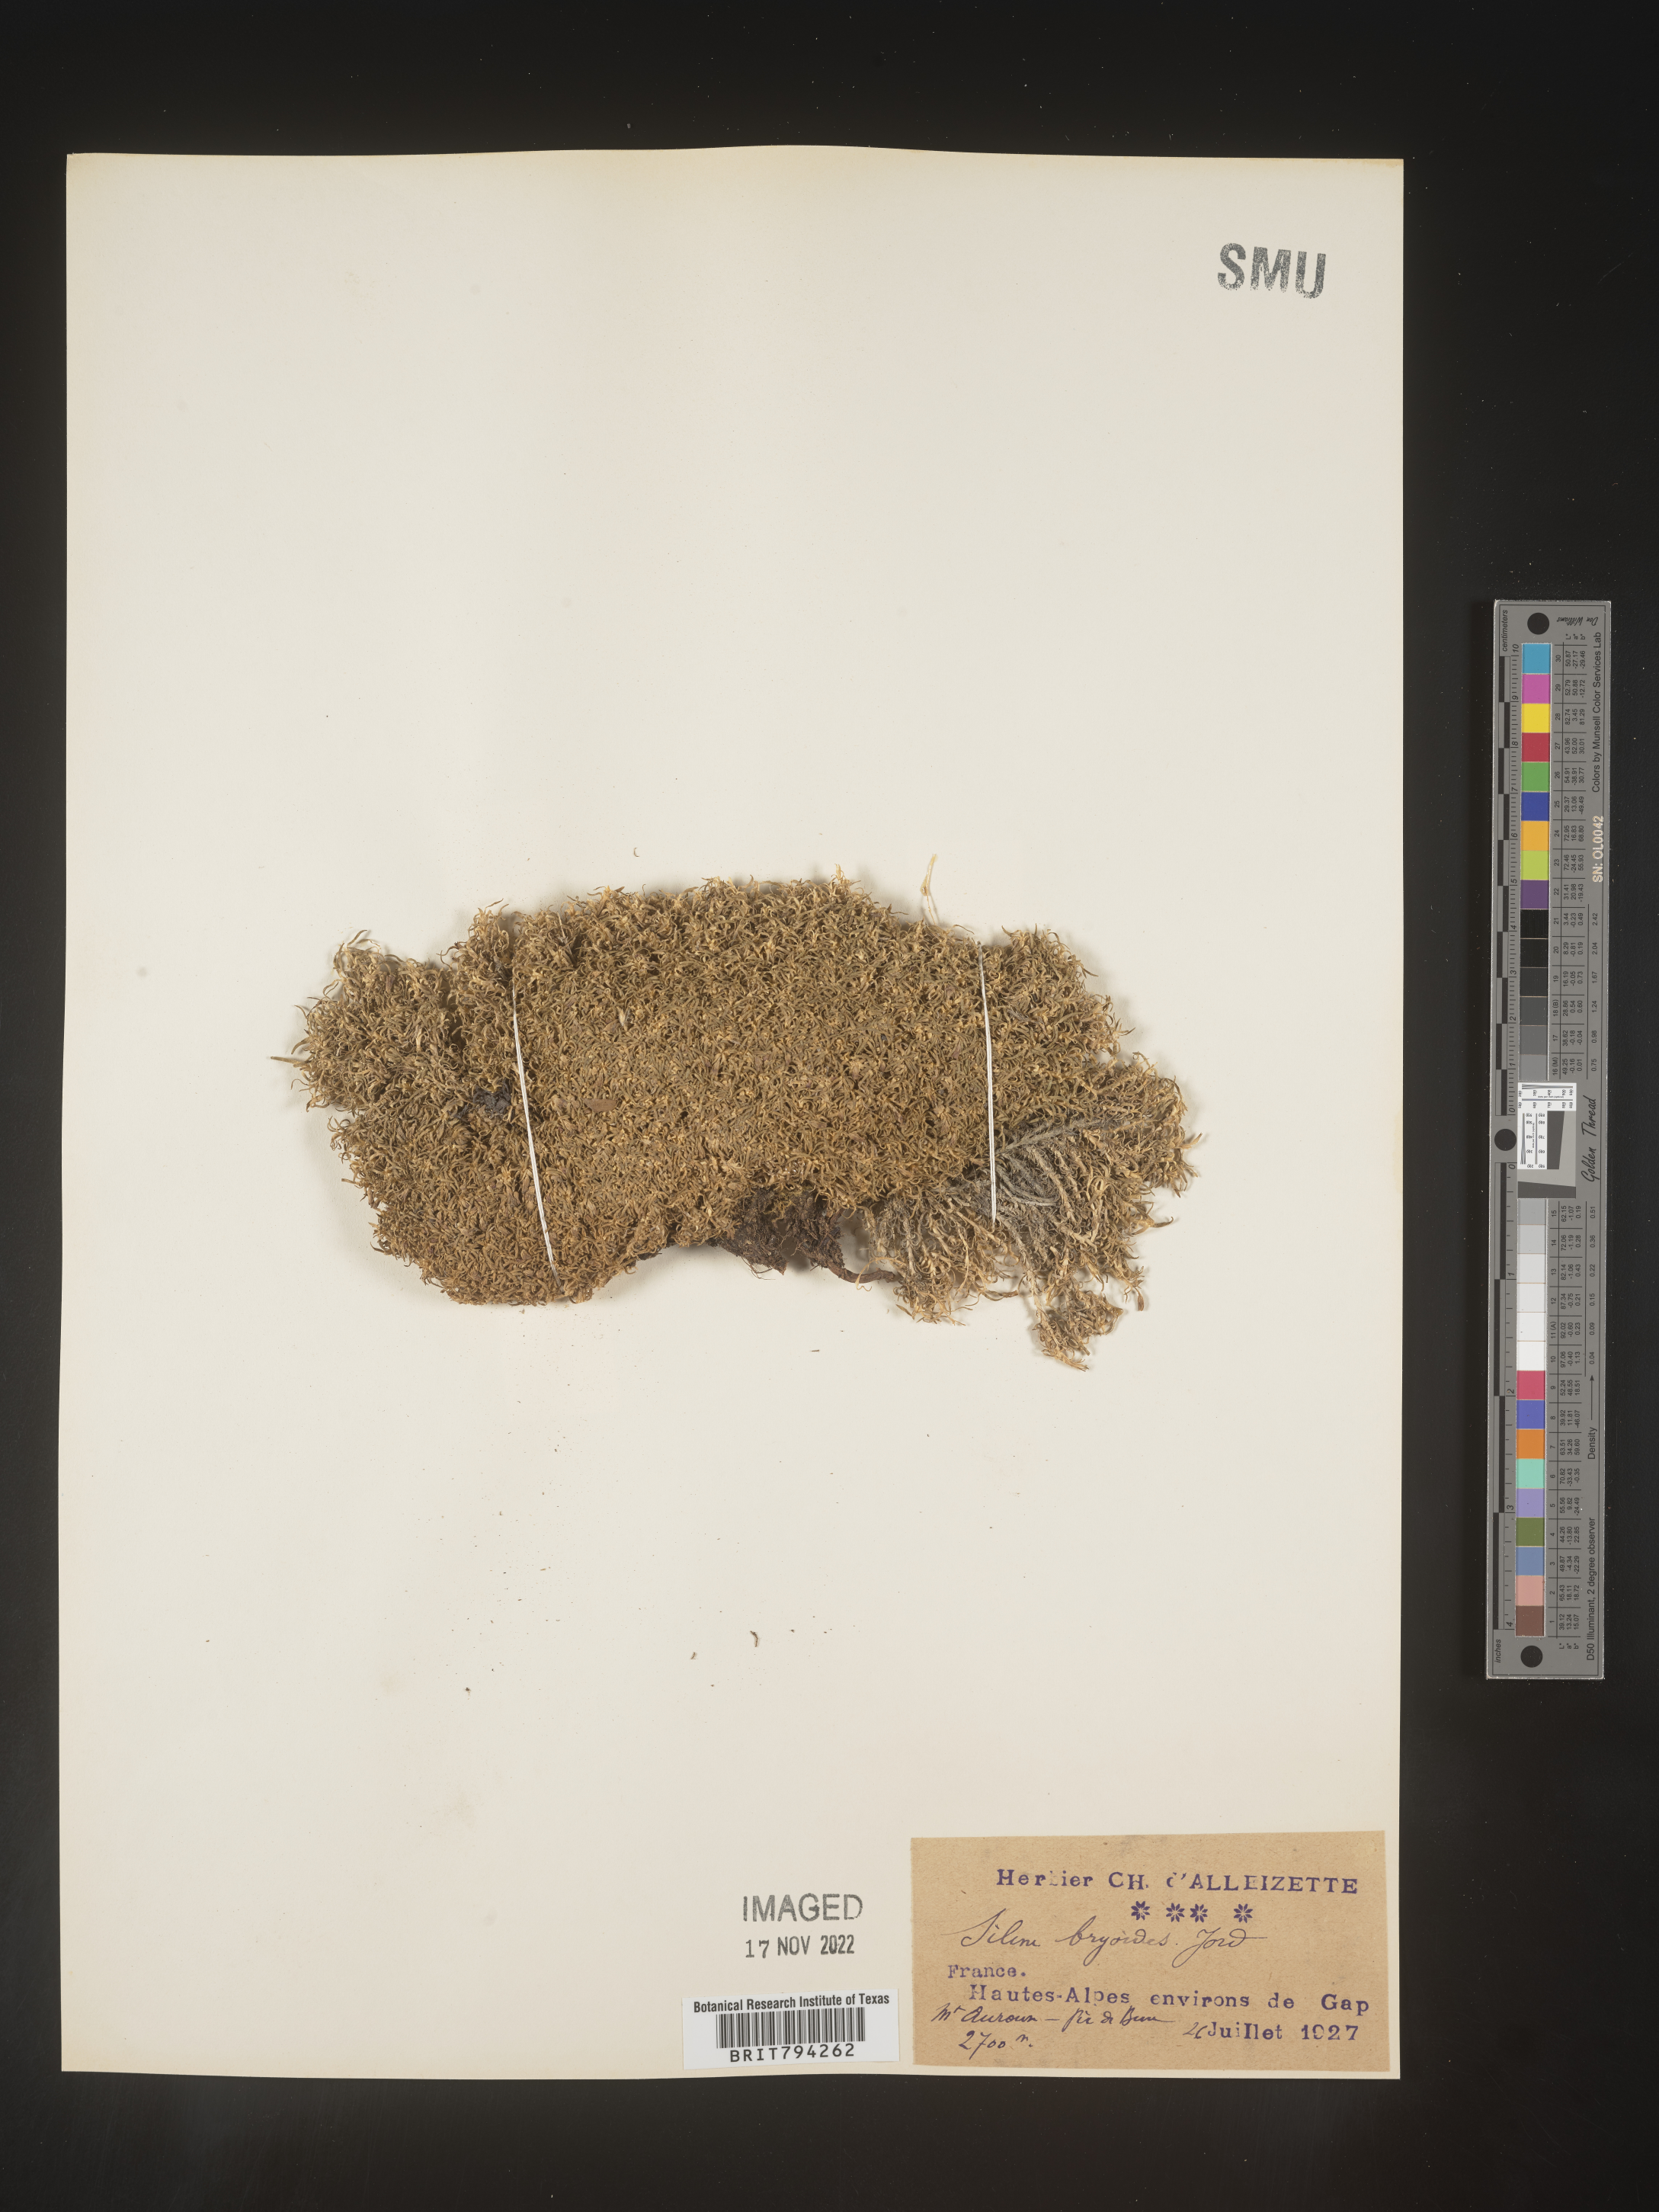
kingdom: Plantae
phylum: Tracheophyta
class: Magnoliopsida
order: Caryophyllales
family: Caryophyllaceae
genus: Silene
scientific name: Silene acaulis
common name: Moss campion
